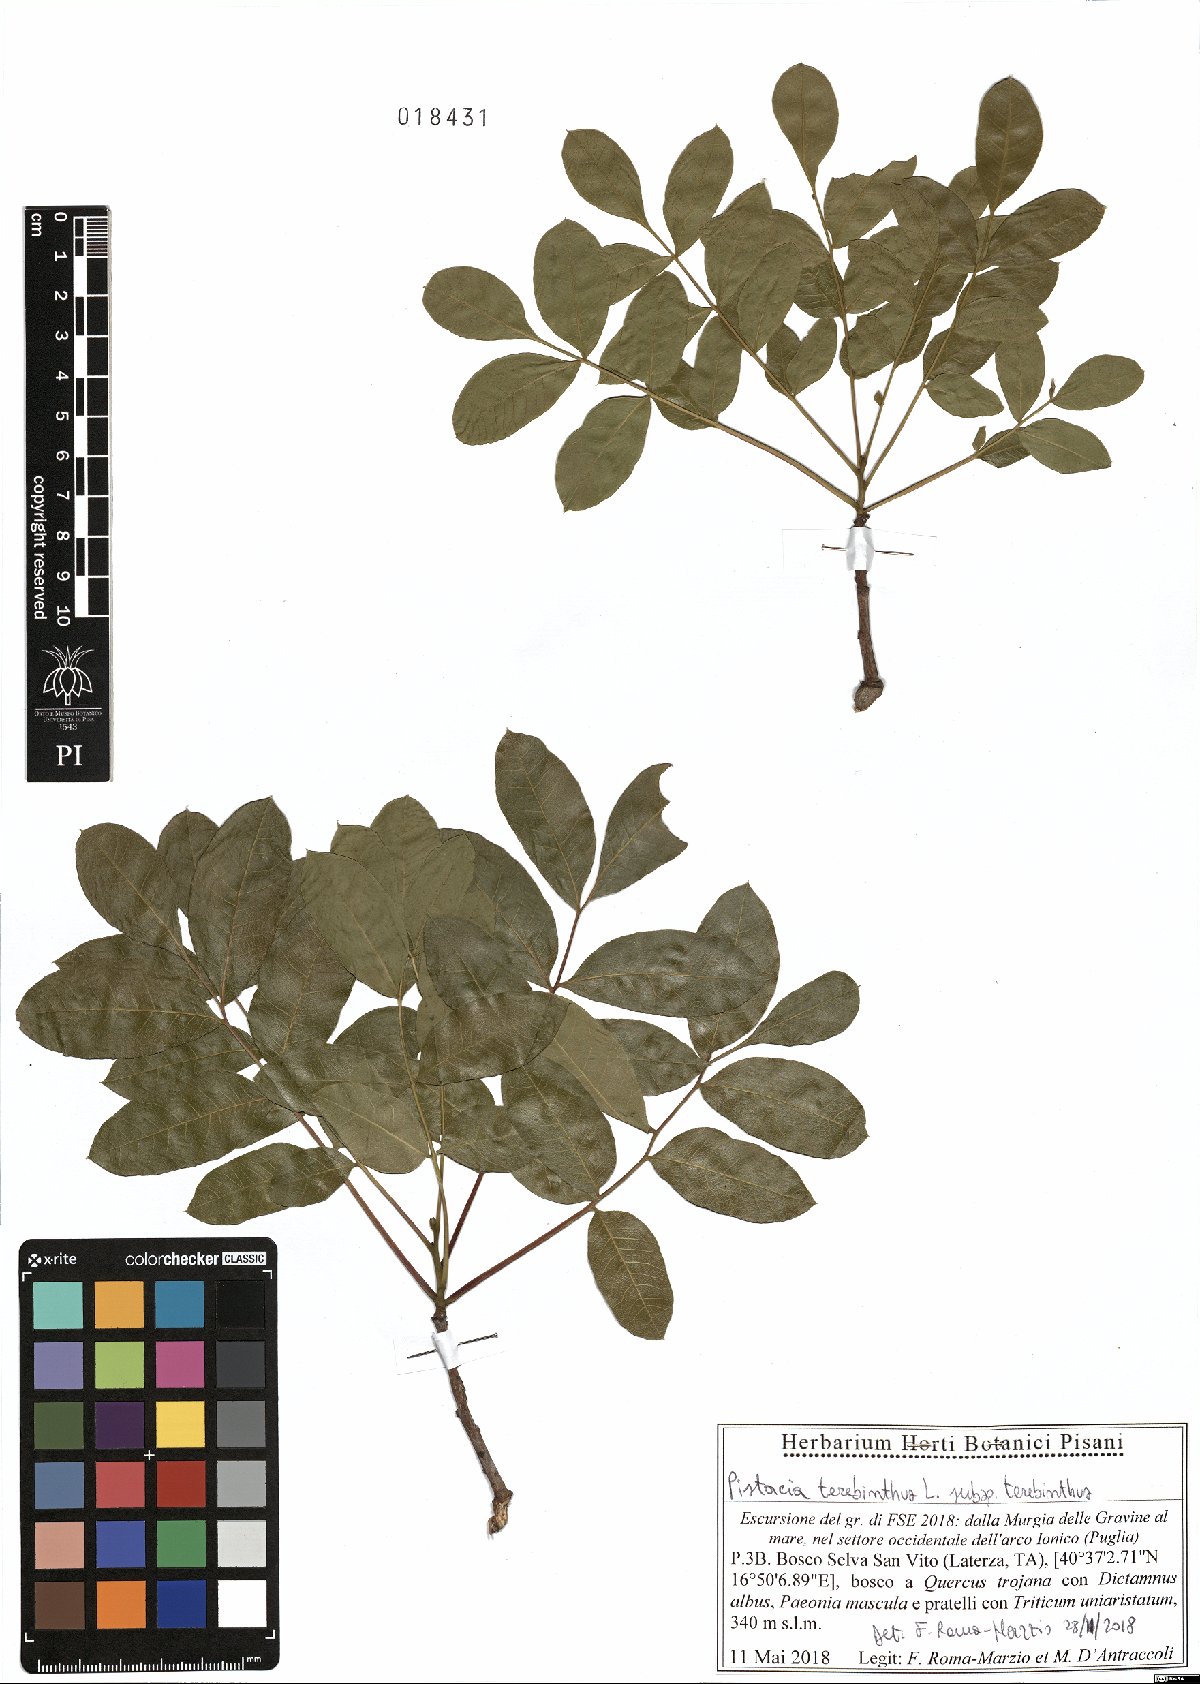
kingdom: Plantae
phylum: Tracheophyta
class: Magnoliopsida
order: Sapindales
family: Anacardiaceae
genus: Pistacia
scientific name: Pistacia terebinthus
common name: Terebinth
